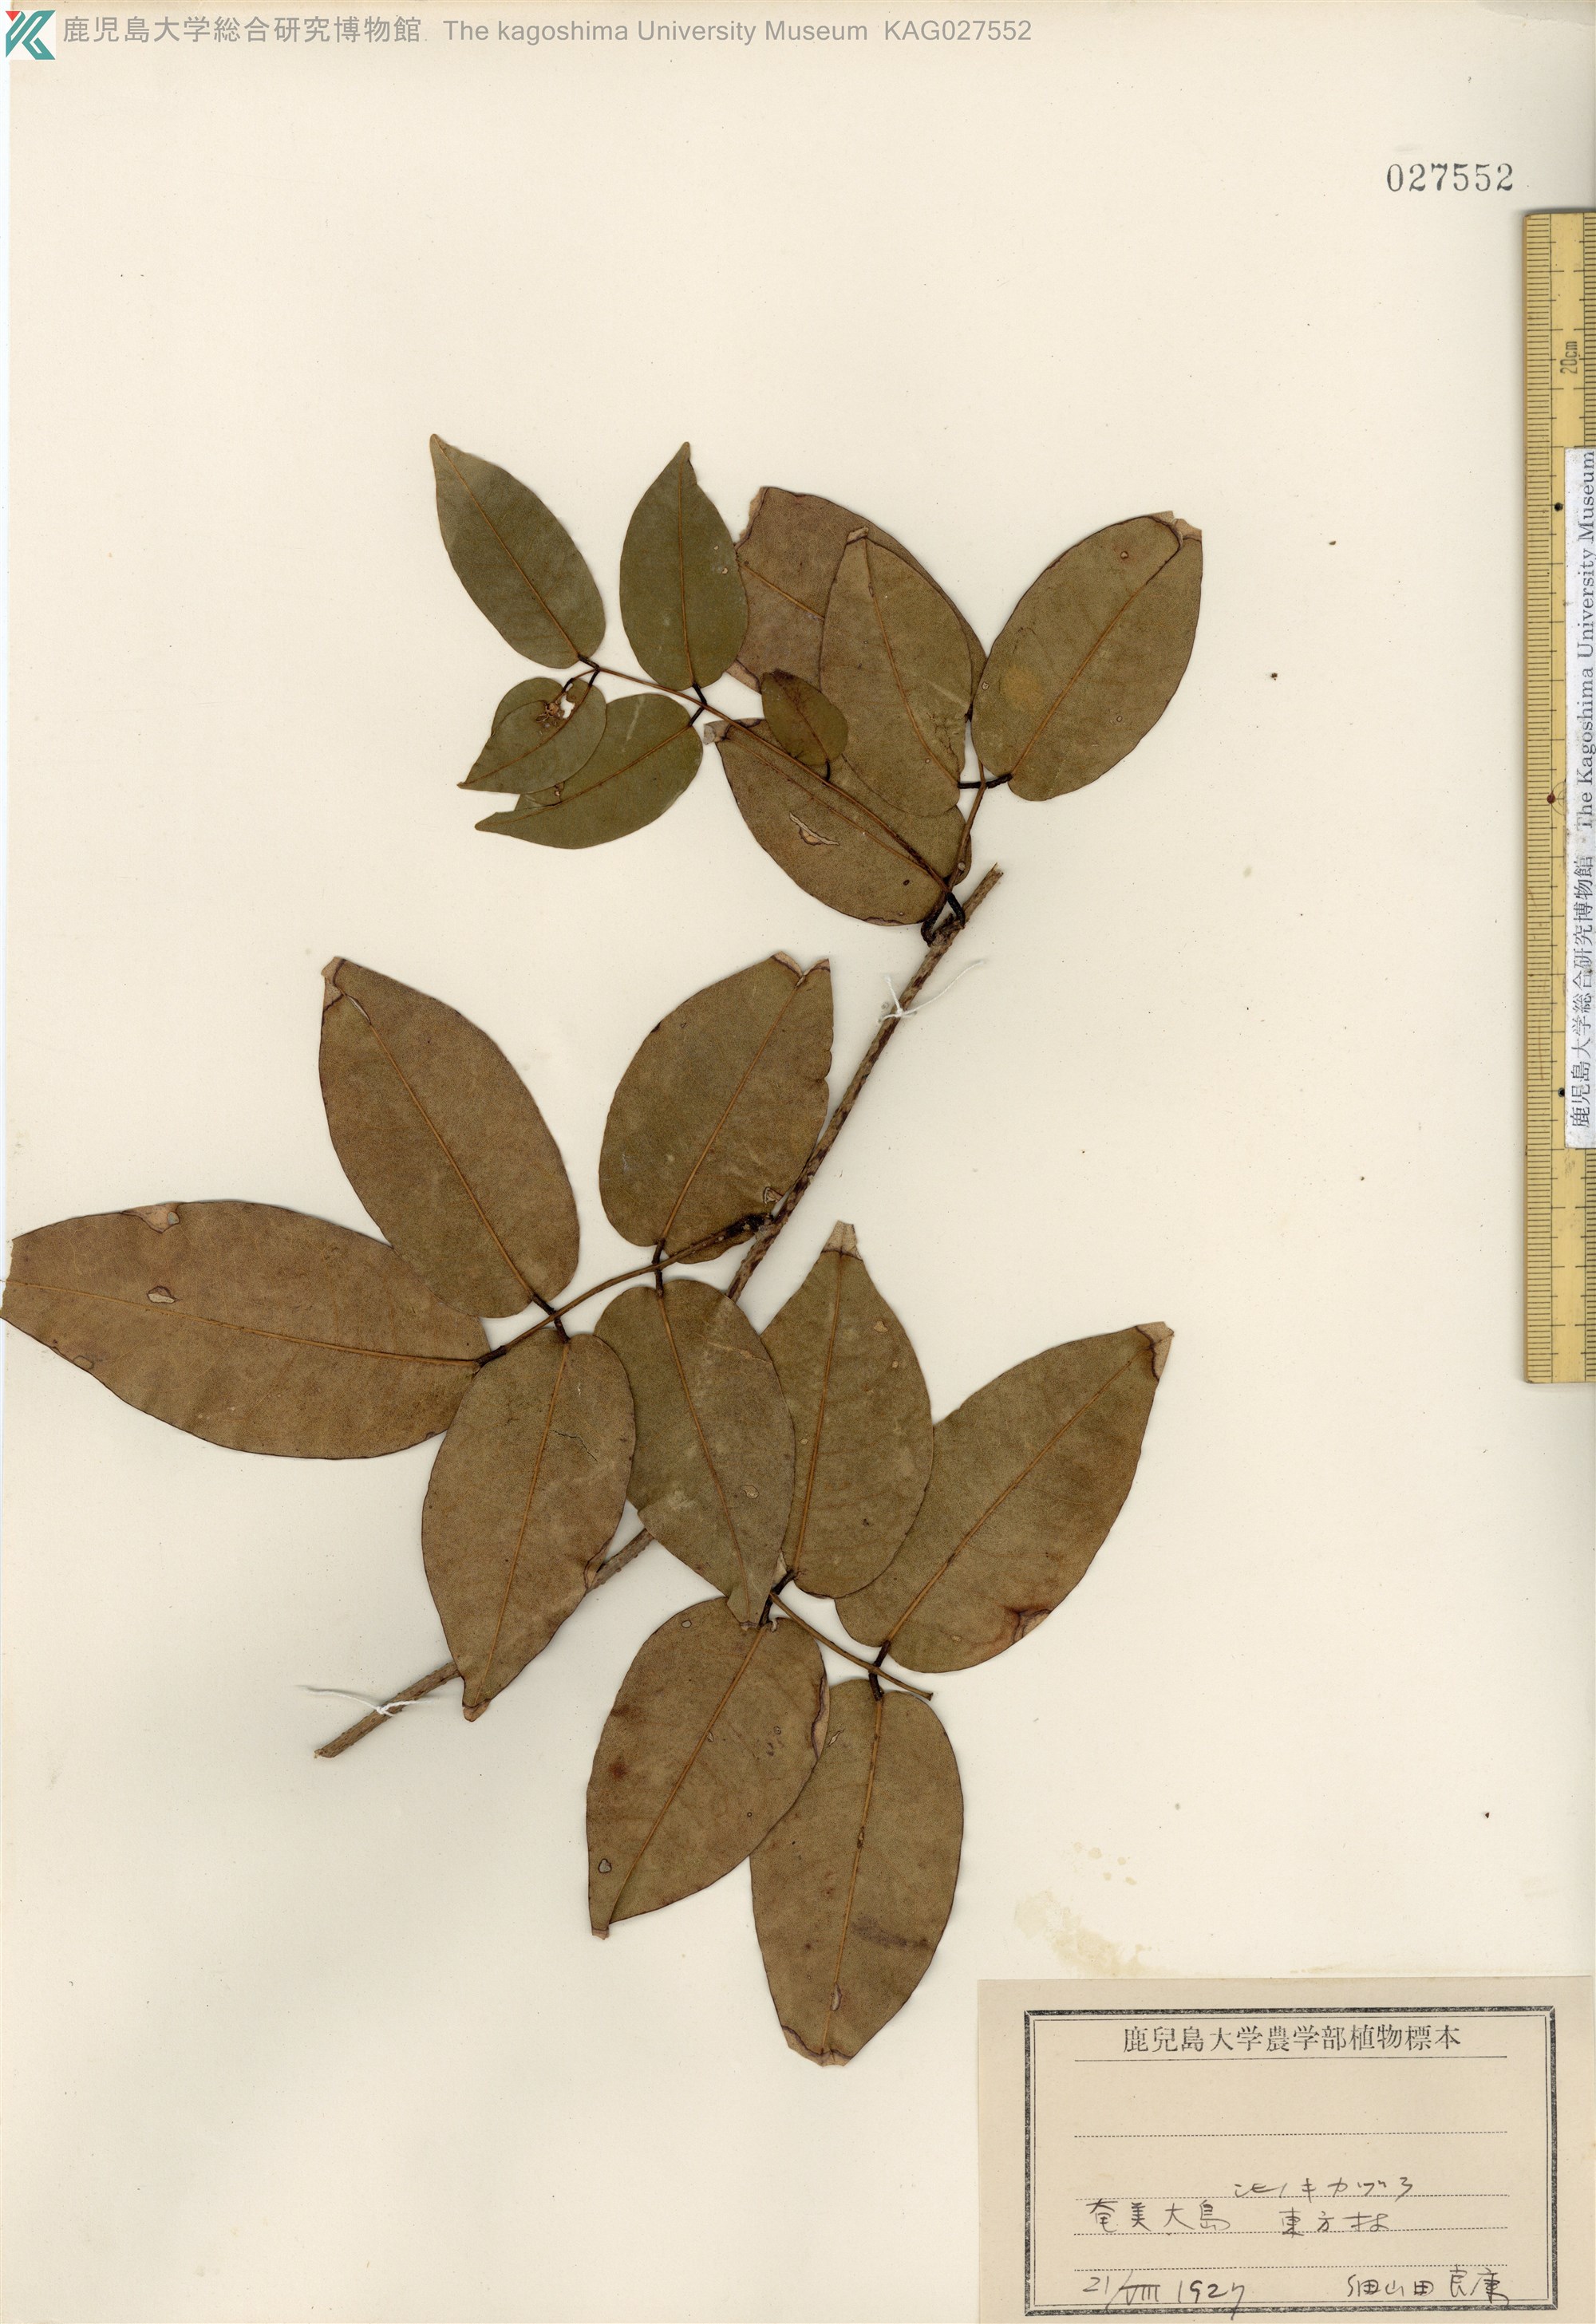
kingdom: Plantae
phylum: Tracheophyta
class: Magnoliopsida
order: Fabales
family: Fabaceae
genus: Derris
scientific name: Derris trifoliata
